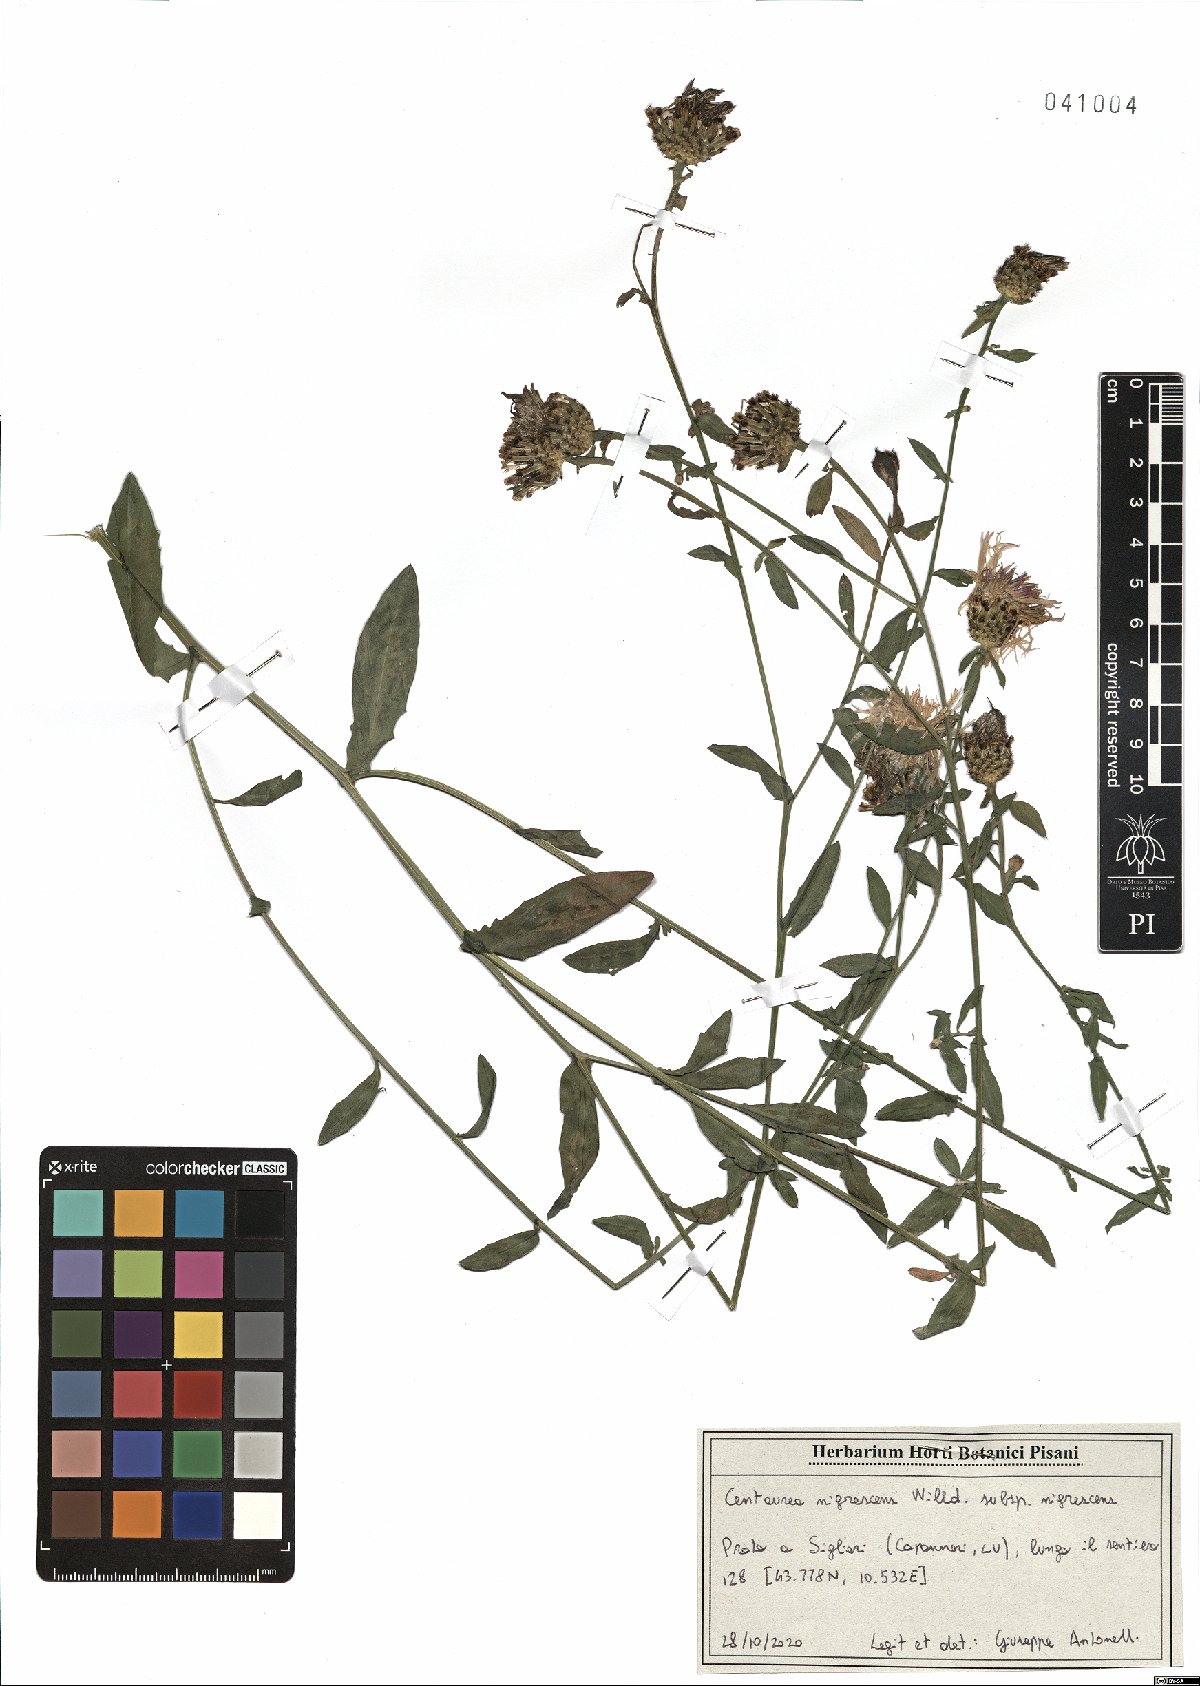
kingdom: Plantae
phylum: Tracheophyta
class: Magnoliopsida
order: Asterales
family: Asteraceae
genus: Centaurea
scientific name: Centaurea nigrescens
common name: Tyrol knapweed
